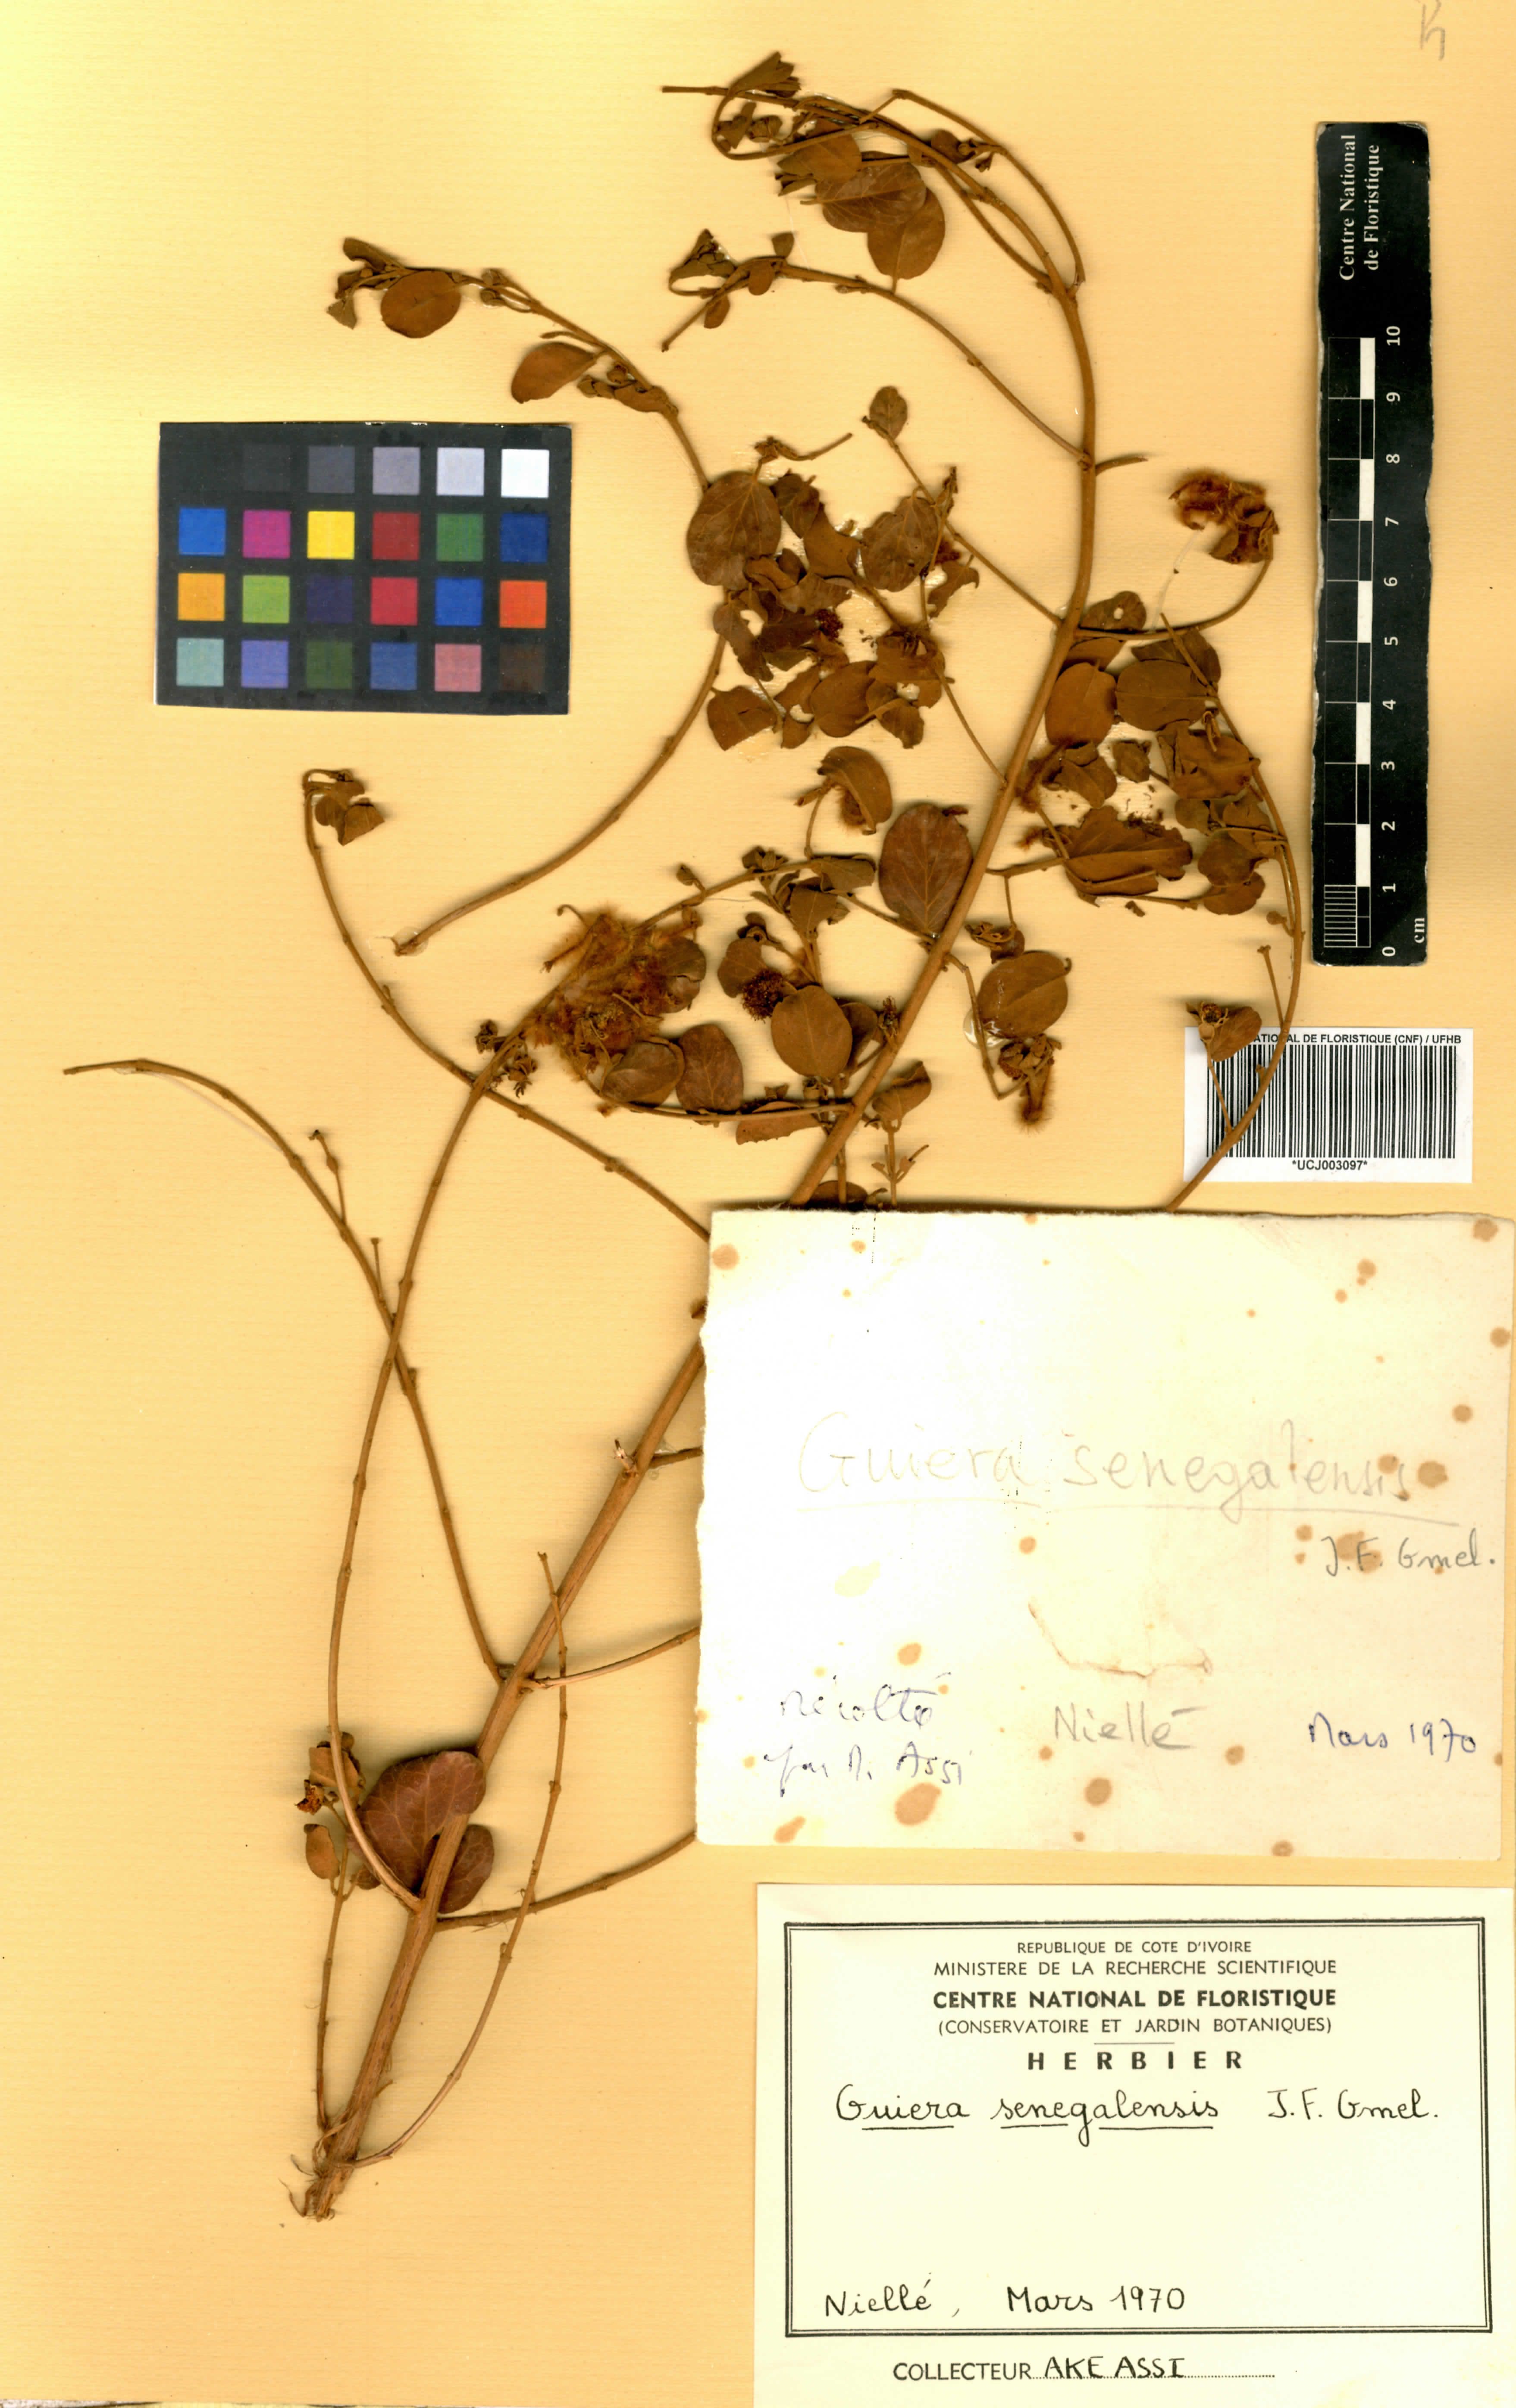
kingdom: Plantae
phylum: Tracheophyta
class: Magnoliopsida
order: Myrtales
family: Combretaceae
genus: Guiera
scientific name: Guiera senegalensis
